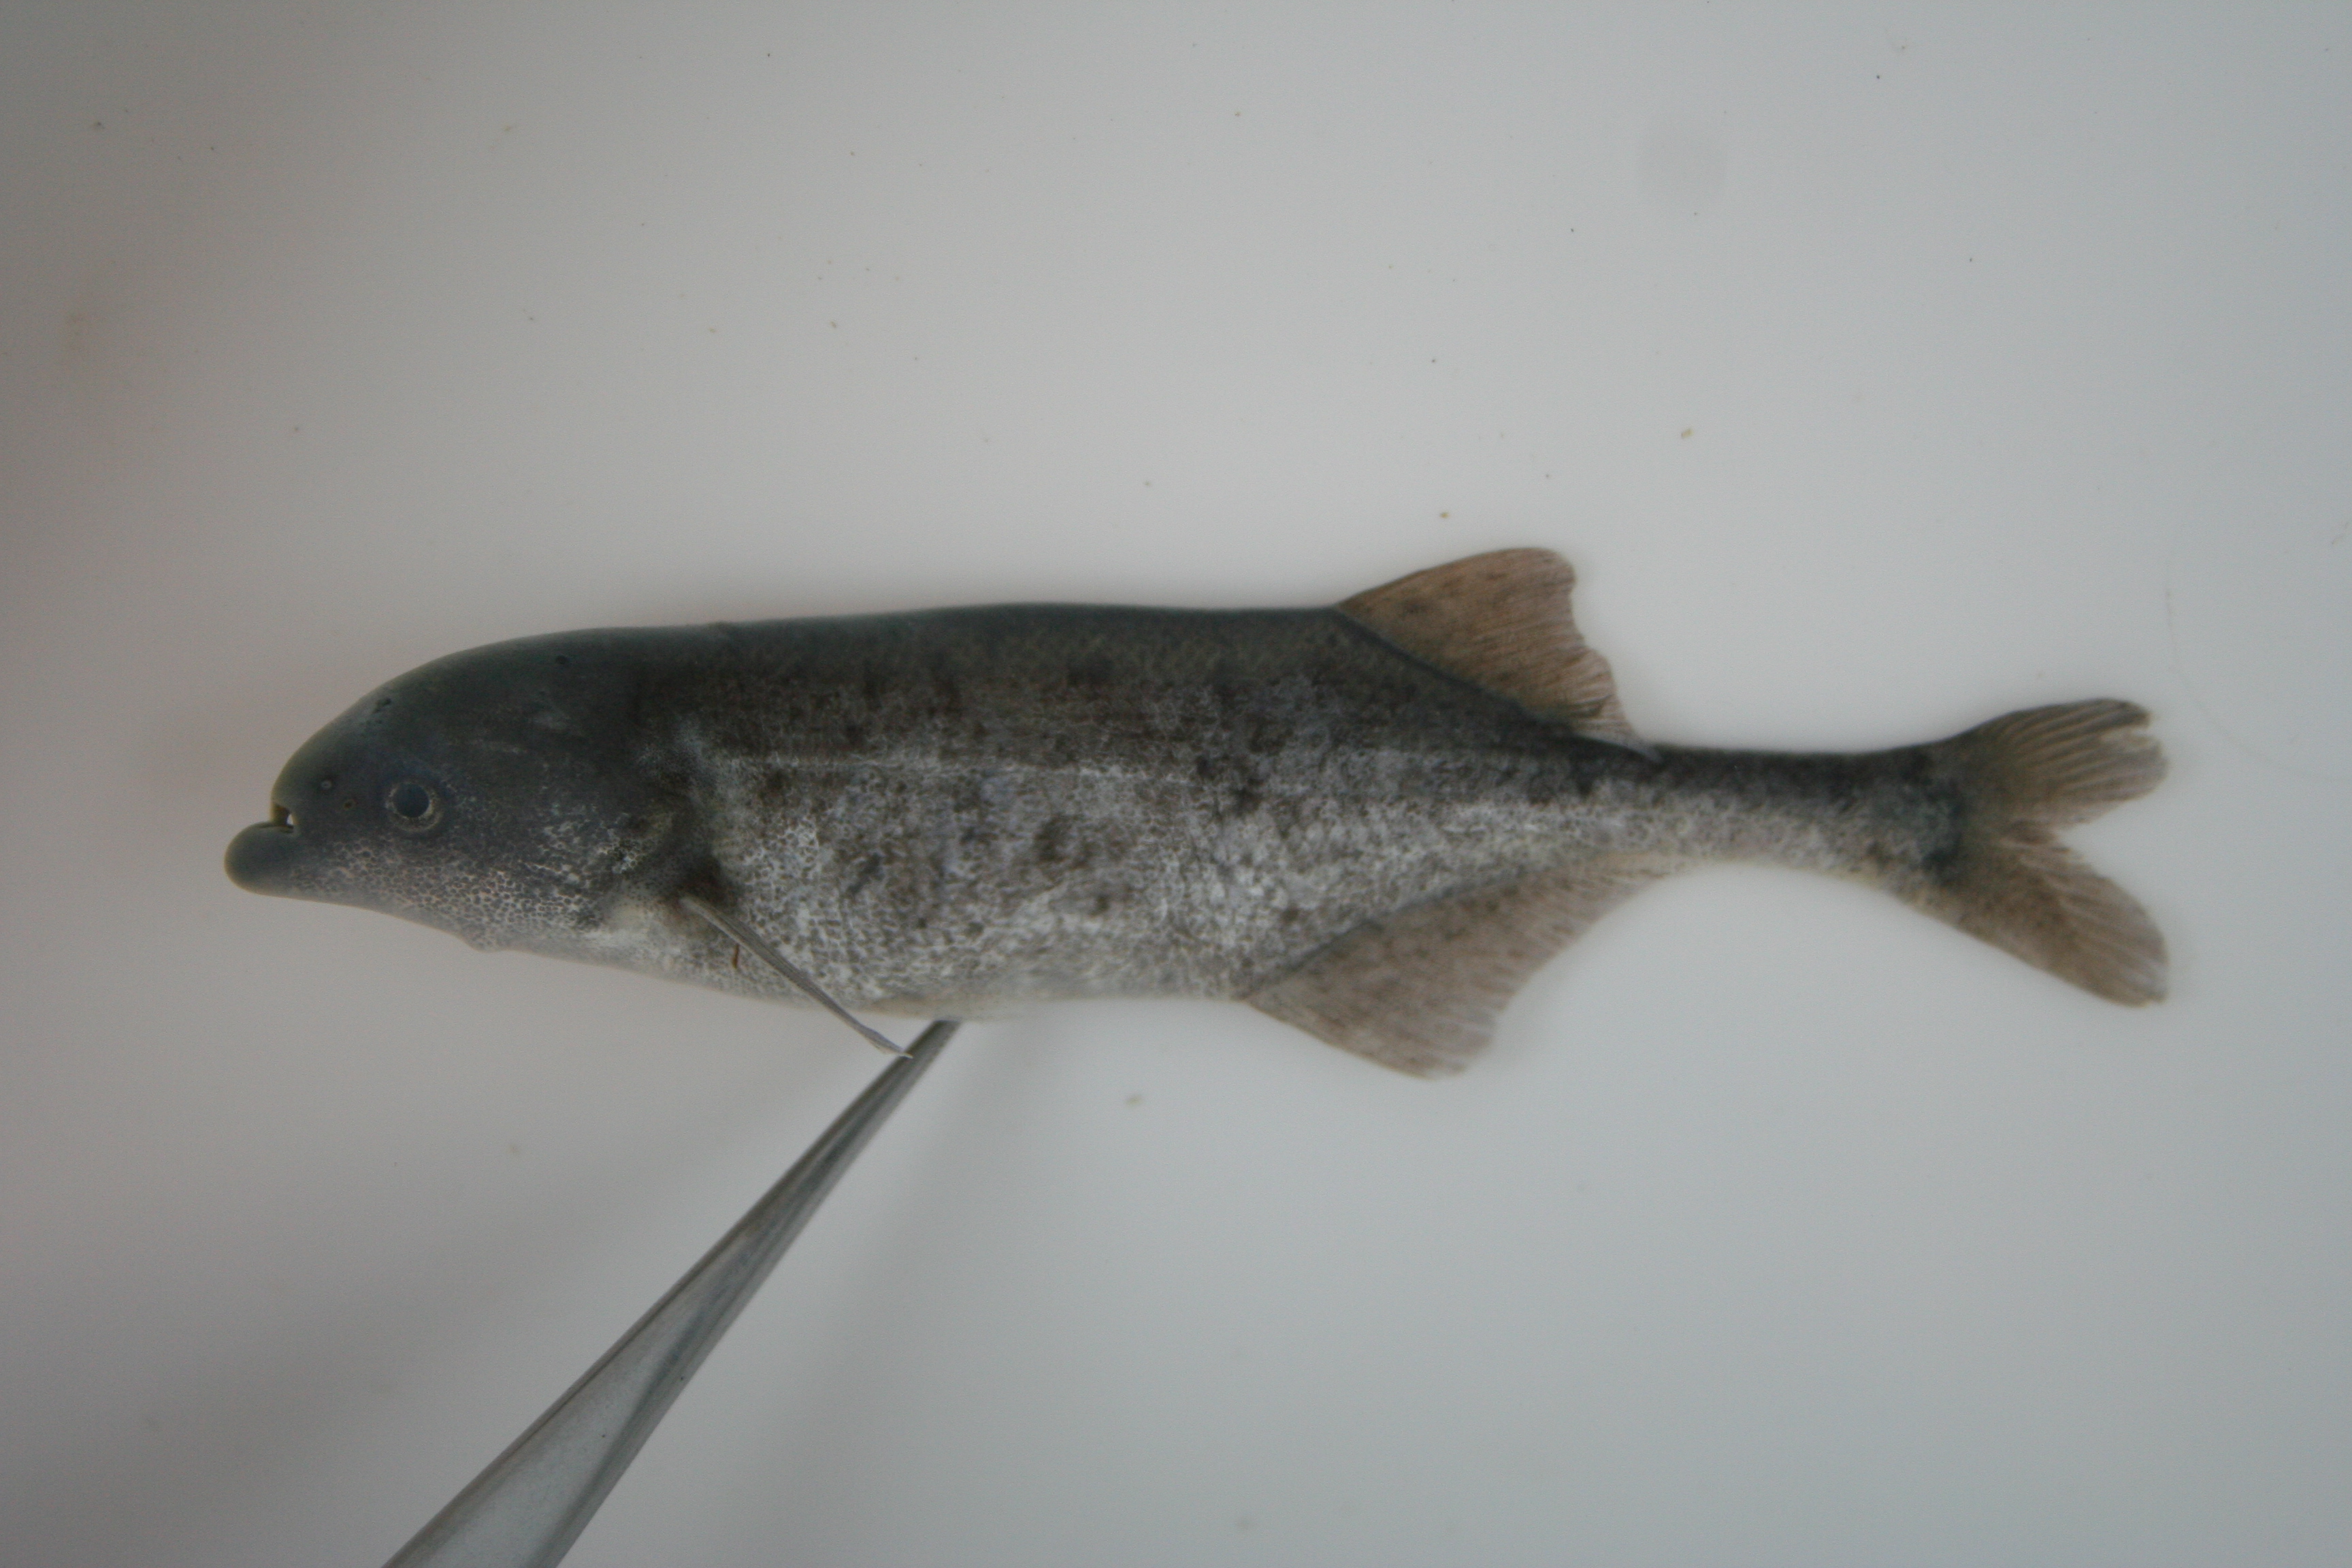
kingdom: Animalia
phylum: Chordata
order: Osteoglossiformes
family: Mormyridae
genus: Marcusenius
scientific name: Marcusenius
